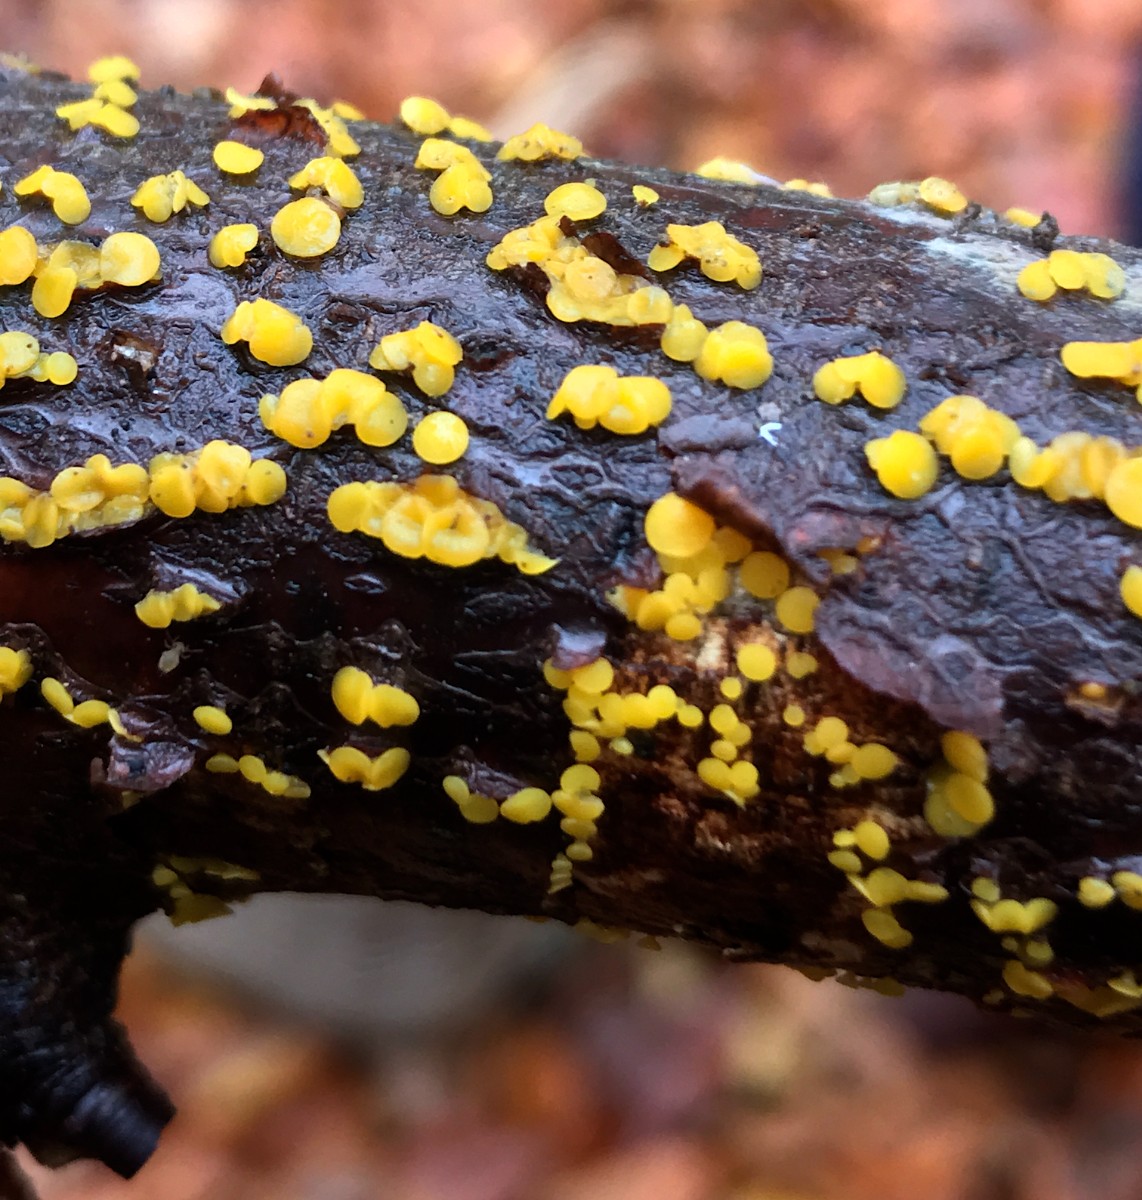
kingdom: Fungi
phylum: Ascomycota
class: Leotiomycetes
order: Helotiales
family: Pezizellaceae
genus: Calycina
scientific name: Calycina citrina
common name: almindelig gulskive
